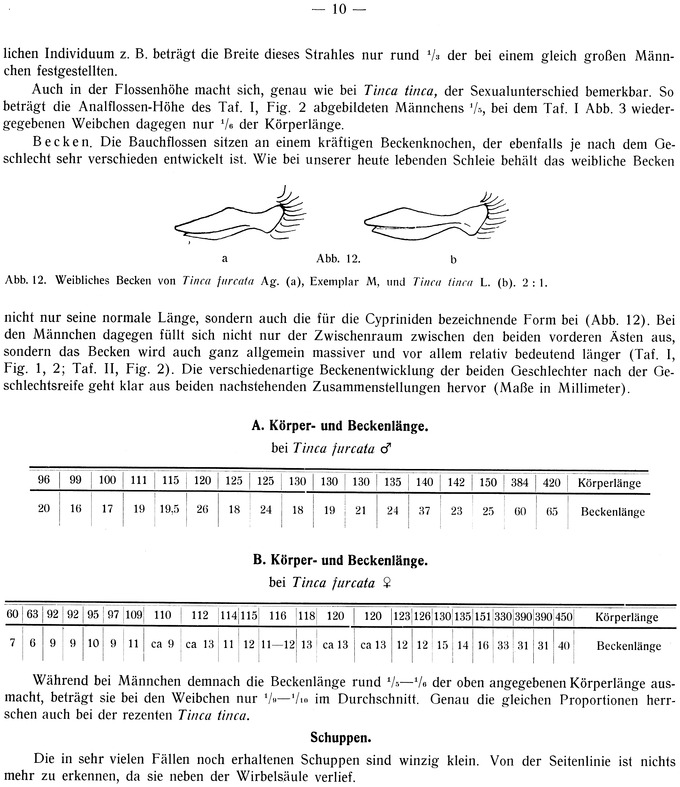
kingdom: Animalia
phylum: Chordata
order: Cypriniformes
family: Cyprinidae
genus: Tinca
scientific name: Tinca fuscata
